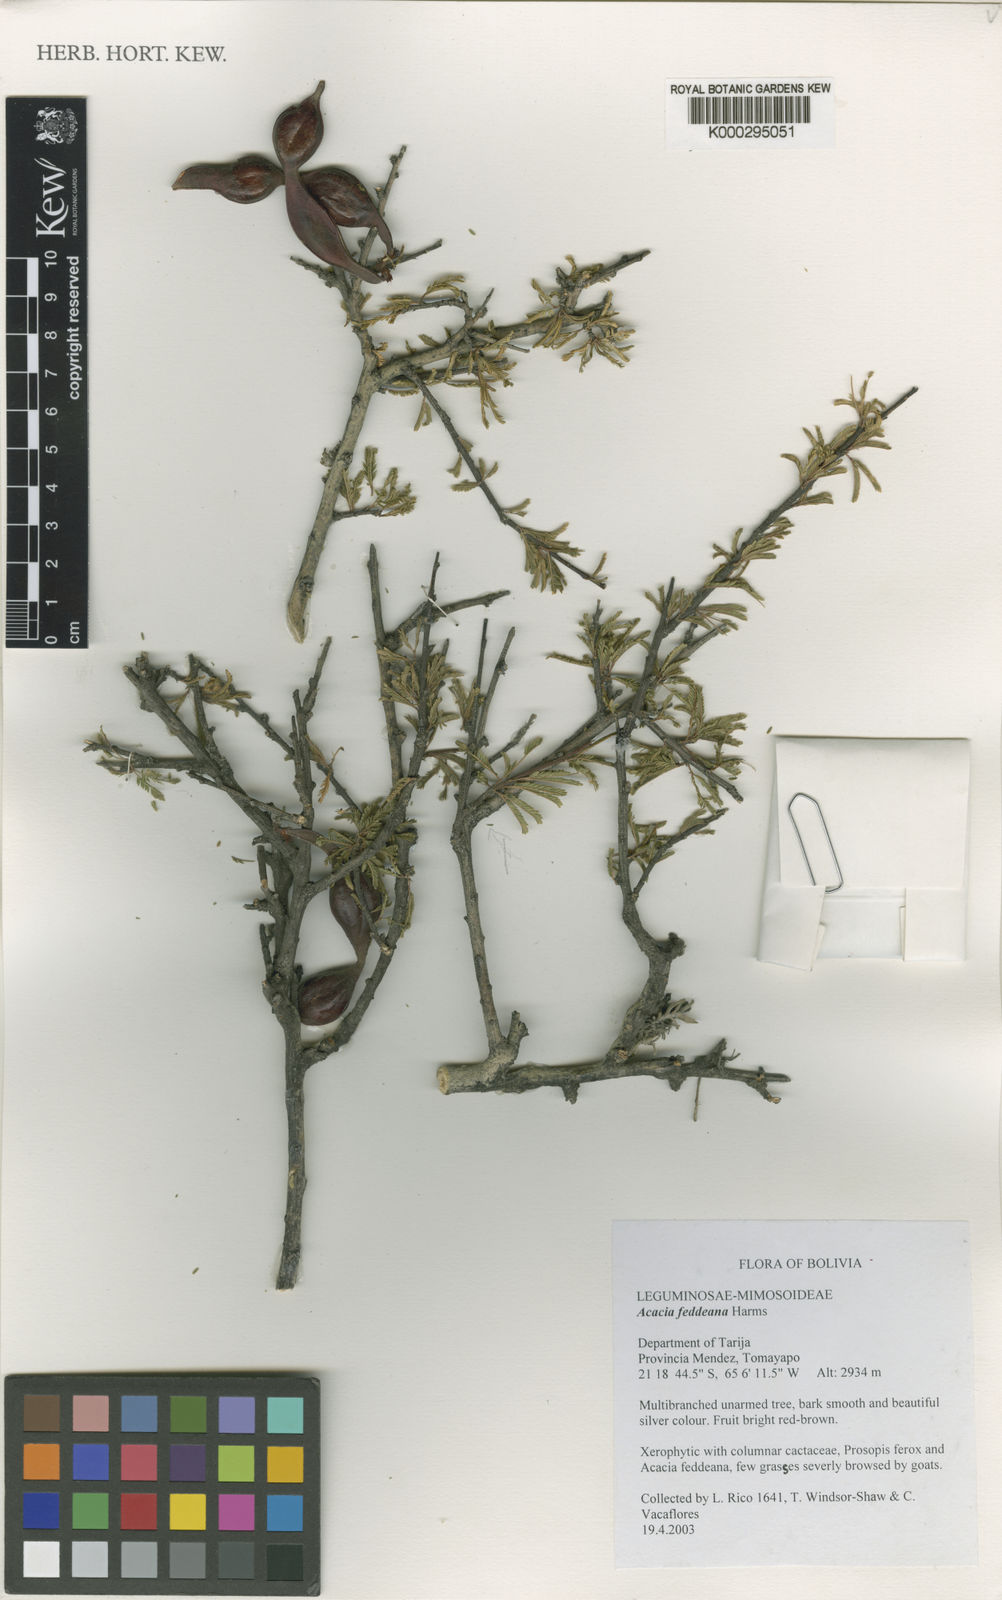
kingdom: Plantae
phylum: Tracheophyta
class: Magnoliopsida
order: Fabales
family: Fabaceae
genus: Pseudosenegalia
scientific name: Pseudosenegalia feddeana
